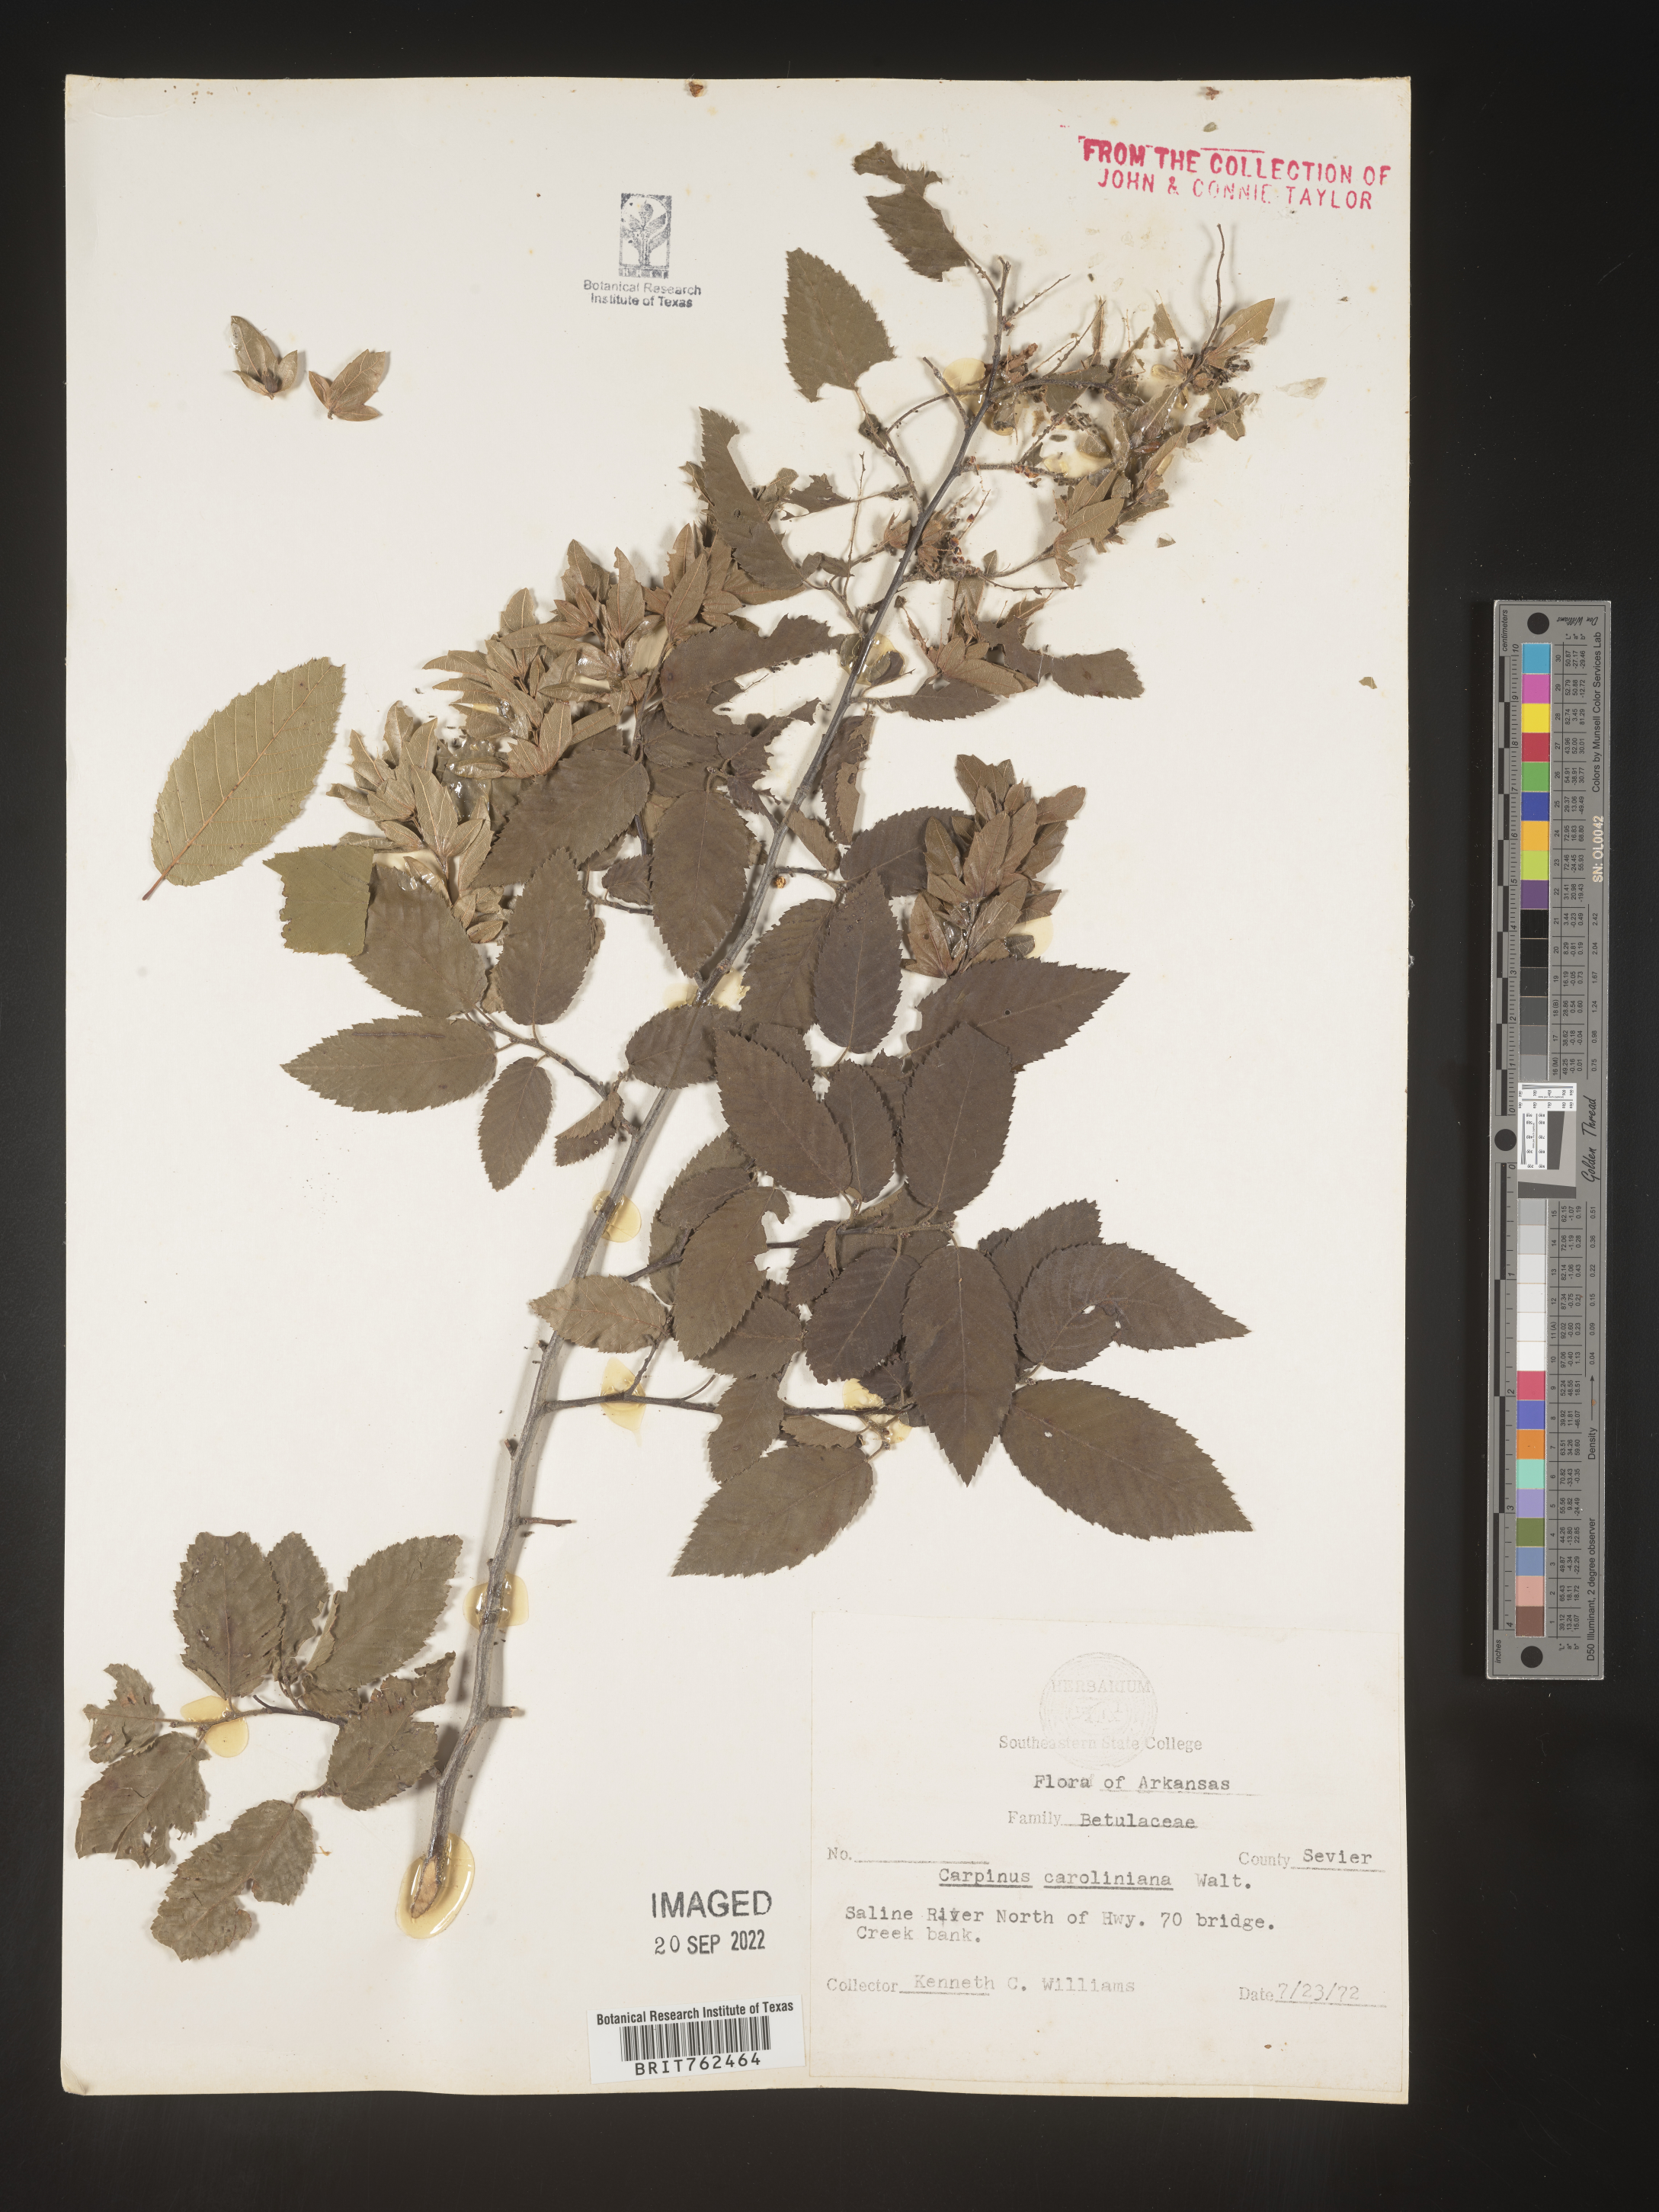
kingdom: Plantae
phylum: Tracheophyta
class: Magnoliopsida
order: Fagales
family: Betulaceae
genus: Carpinus
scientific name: Carpinus caroliniana
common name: American hornbeam
